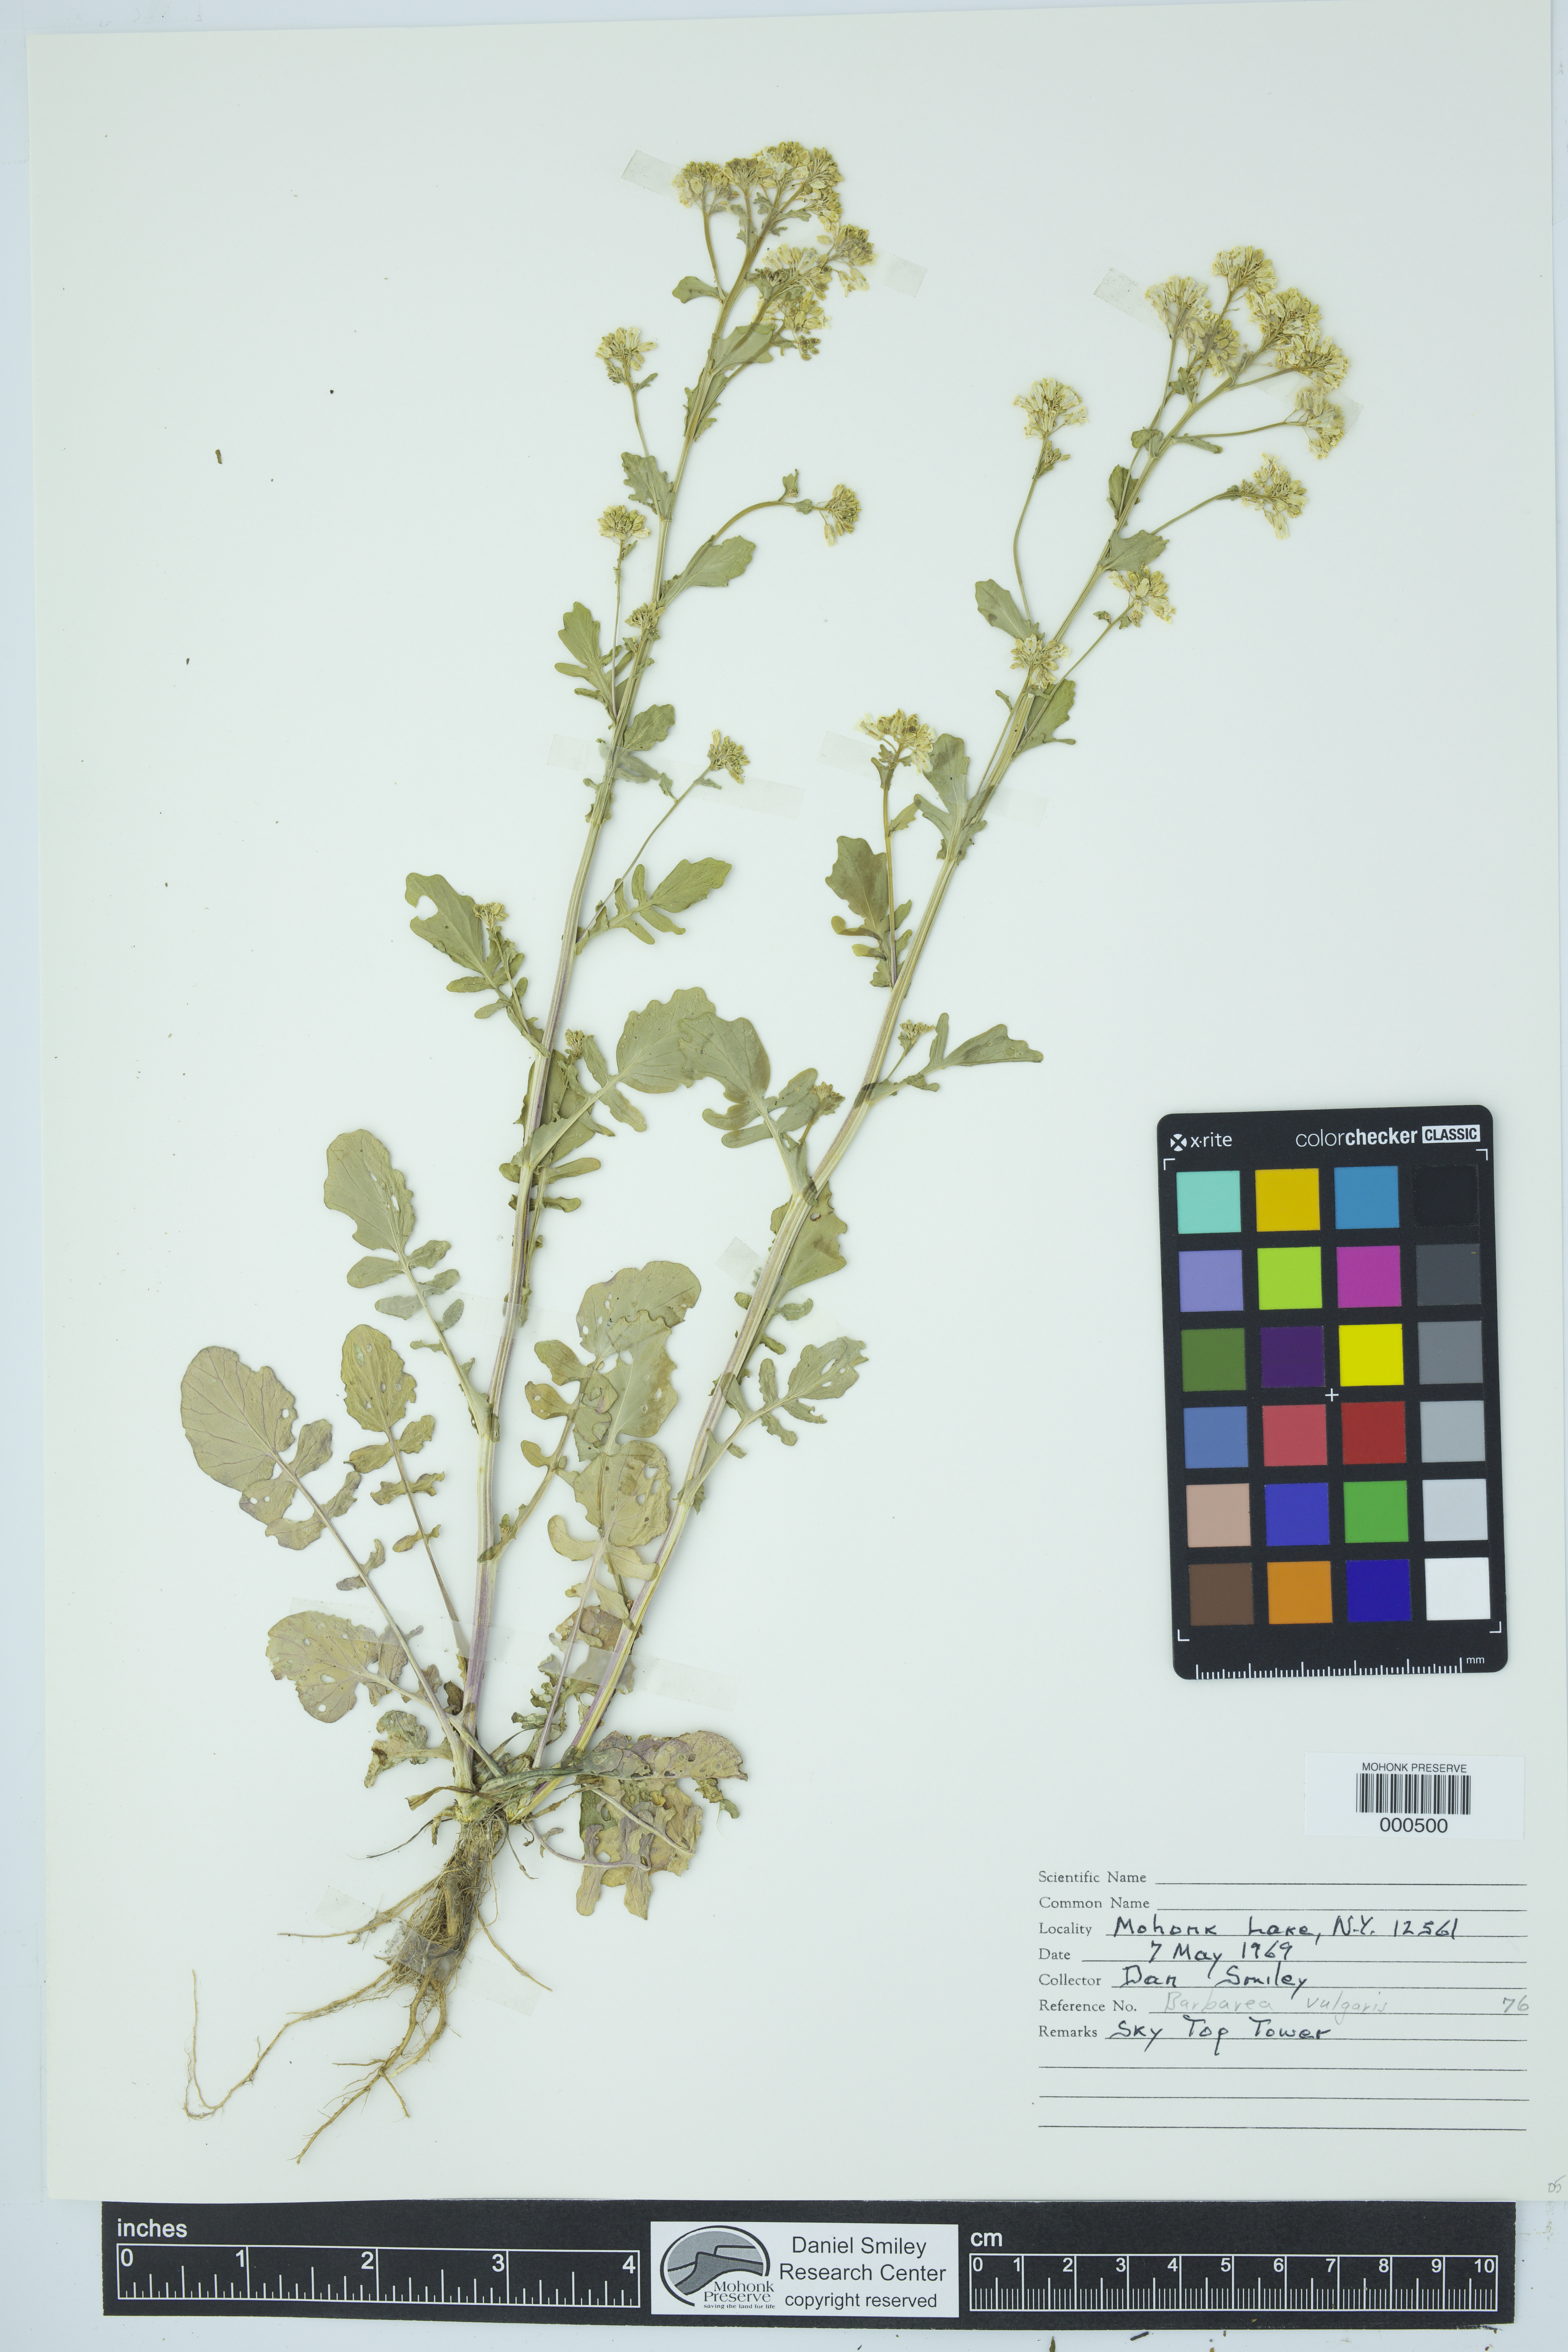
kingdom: Plantae
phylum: Tracheophyta
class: Magnoliopsida
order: Brassicales
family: Brassicaceae
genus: Barbarea
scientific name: Barbarea vulgaris
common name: Cressy-greens
